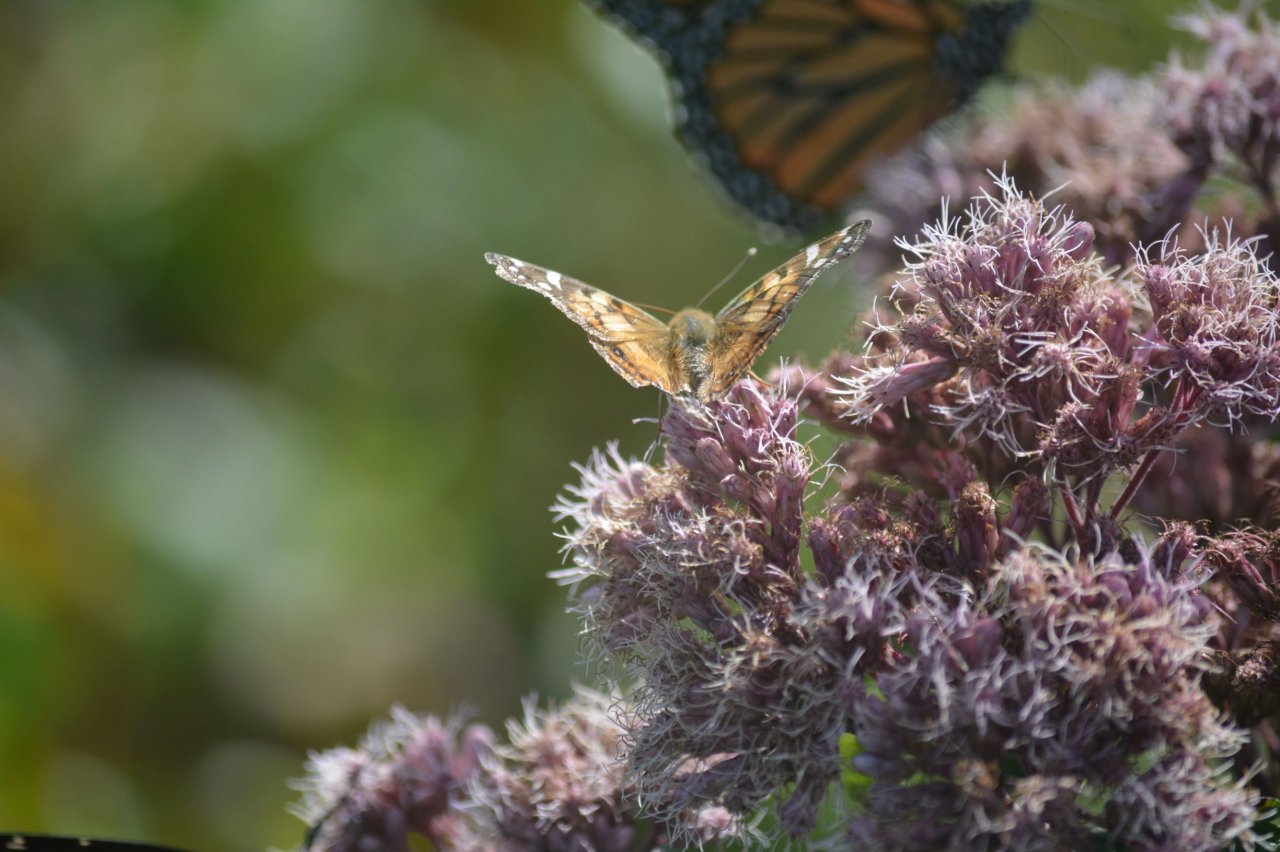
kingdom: Animalia
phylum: Arthropoda
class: Insecta
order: Lepidoptera
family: Nymphalidae
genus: Vanessa
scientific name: Vanessa virginiensis
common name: American Lady
